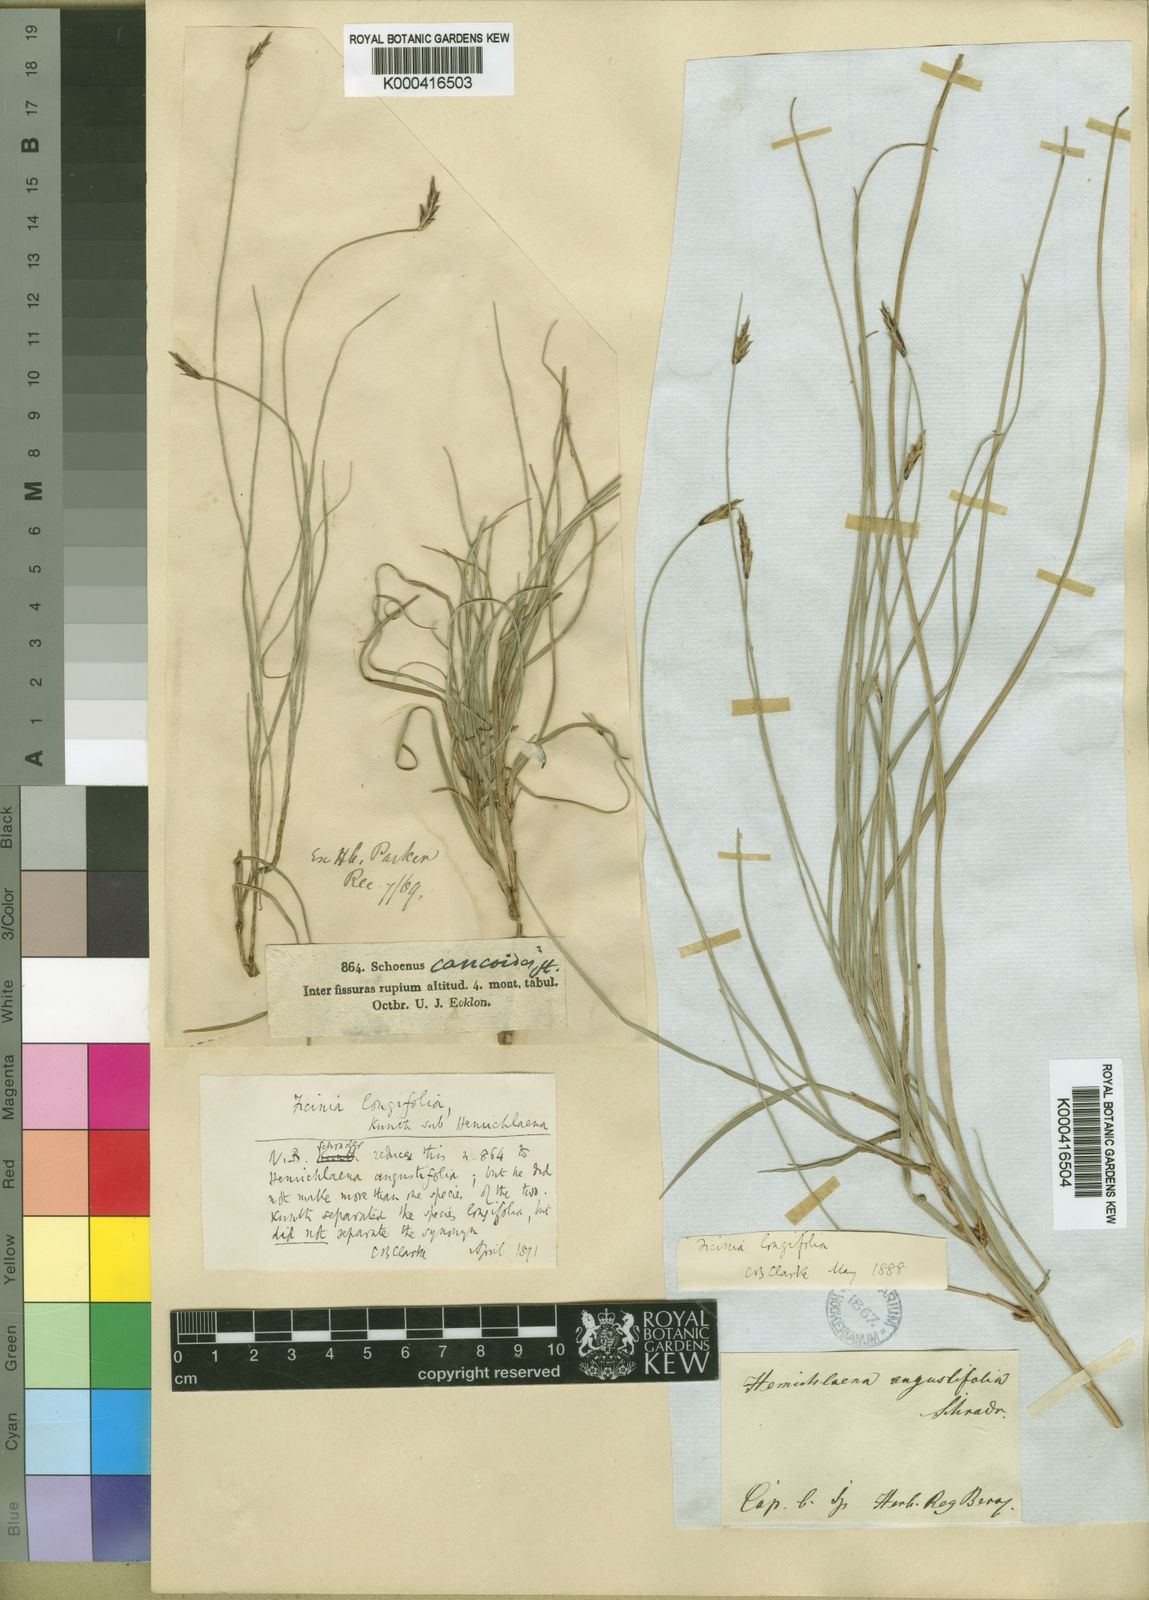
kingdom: Plantae
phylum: Tracheophyta
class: Liliopsida
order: Poales
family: Cyperaceae
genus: Ficinia
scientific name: Ficinia
